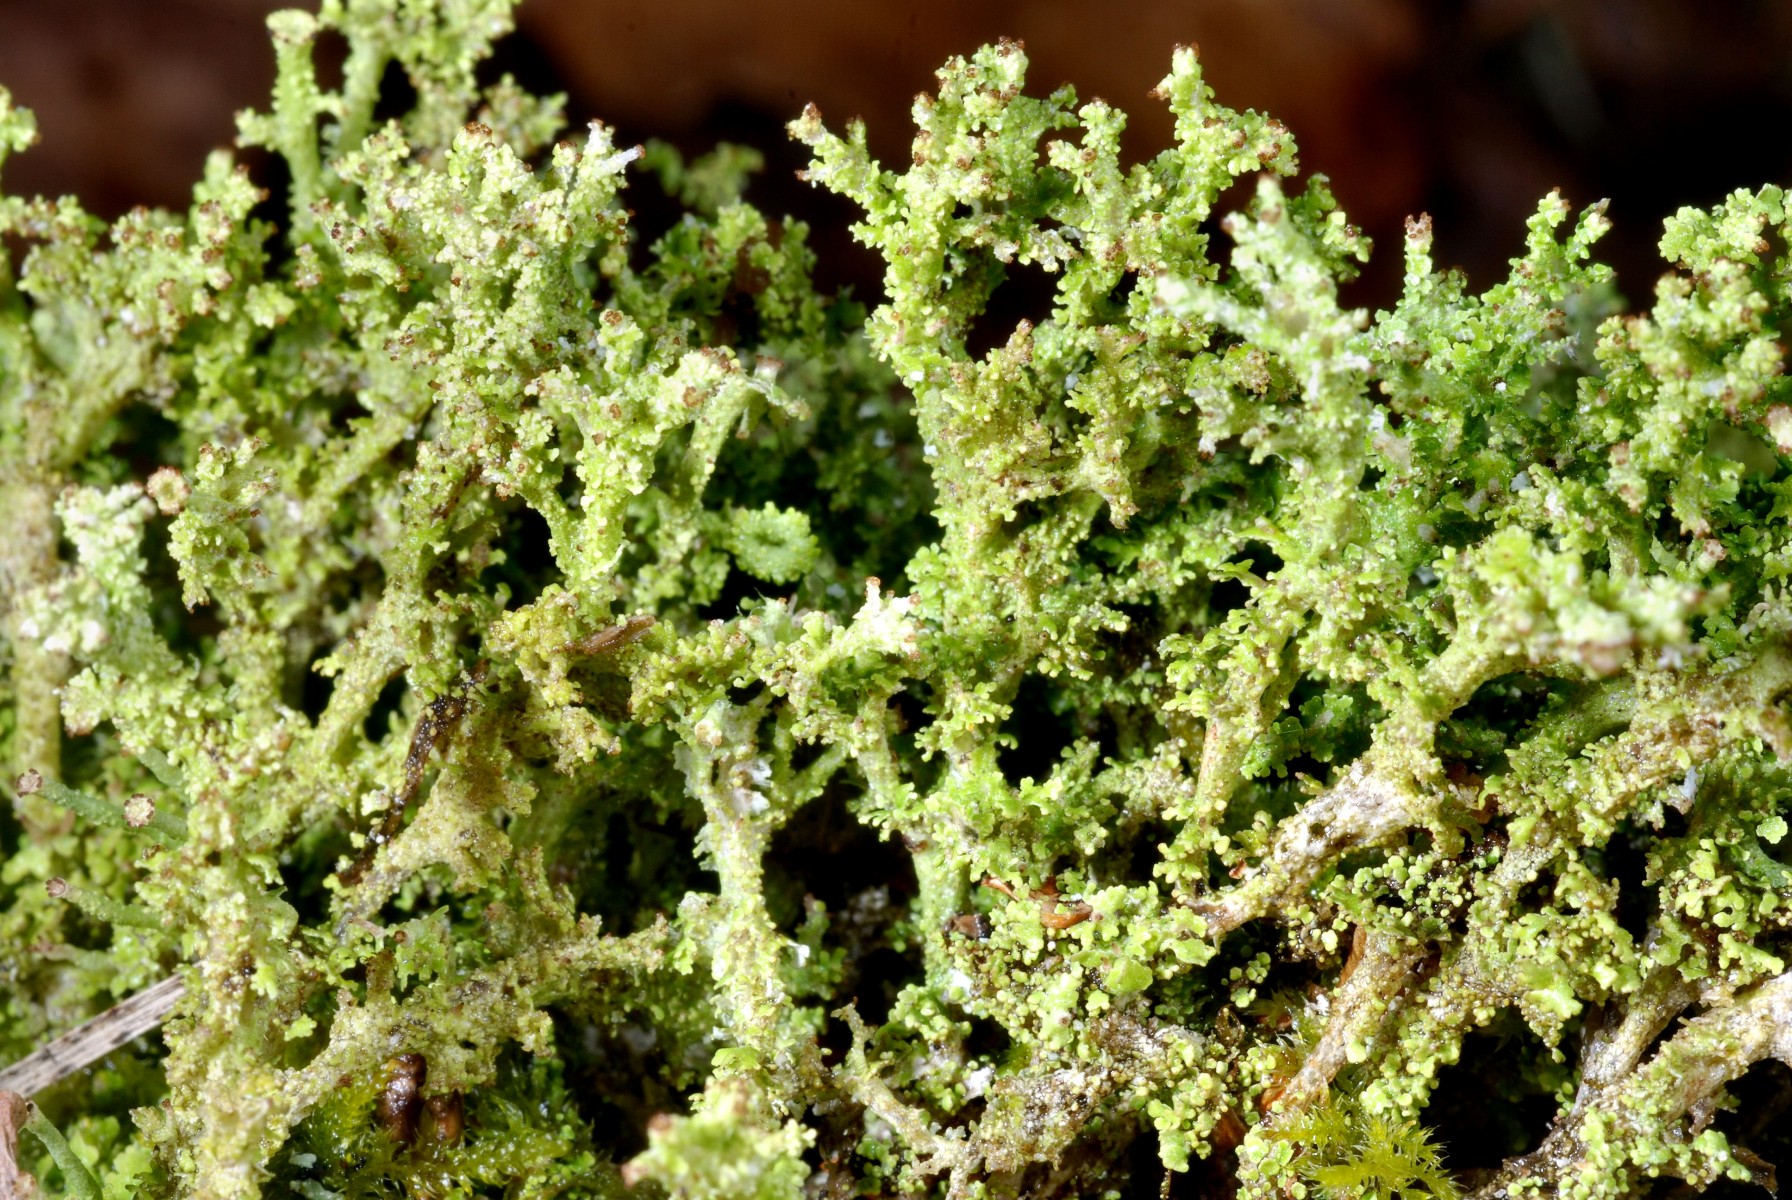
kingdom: Fungi
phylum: Ascomycota
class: Lecanoromycetes
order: Lecanorales
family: Cladoniaceae
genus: Cladonia
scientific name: Cladonia squamosa
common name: skælklædt bægerlav
